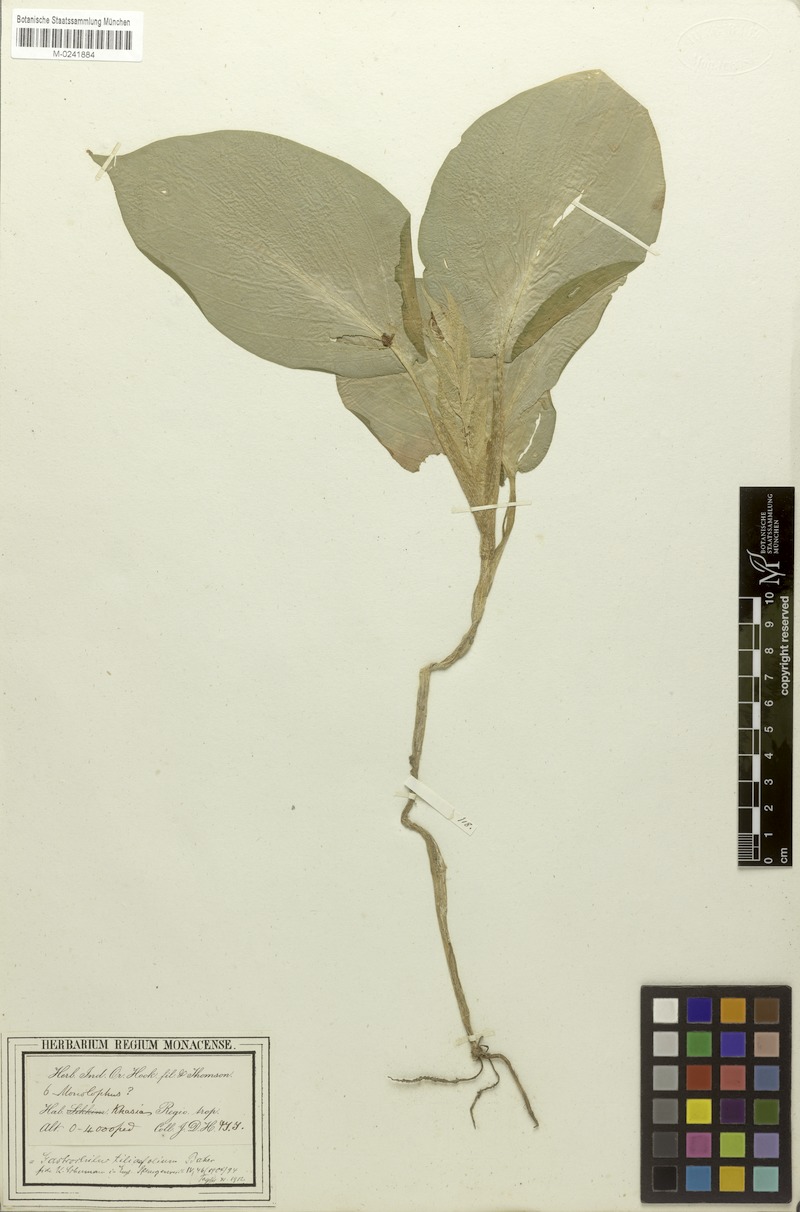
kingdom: Plantae
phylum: Tracheophyta
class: Liliopsida
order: Zingiberales
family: Zingiberaceae
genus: Boesenbergia
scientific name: Boesenbergia tiliifolia
